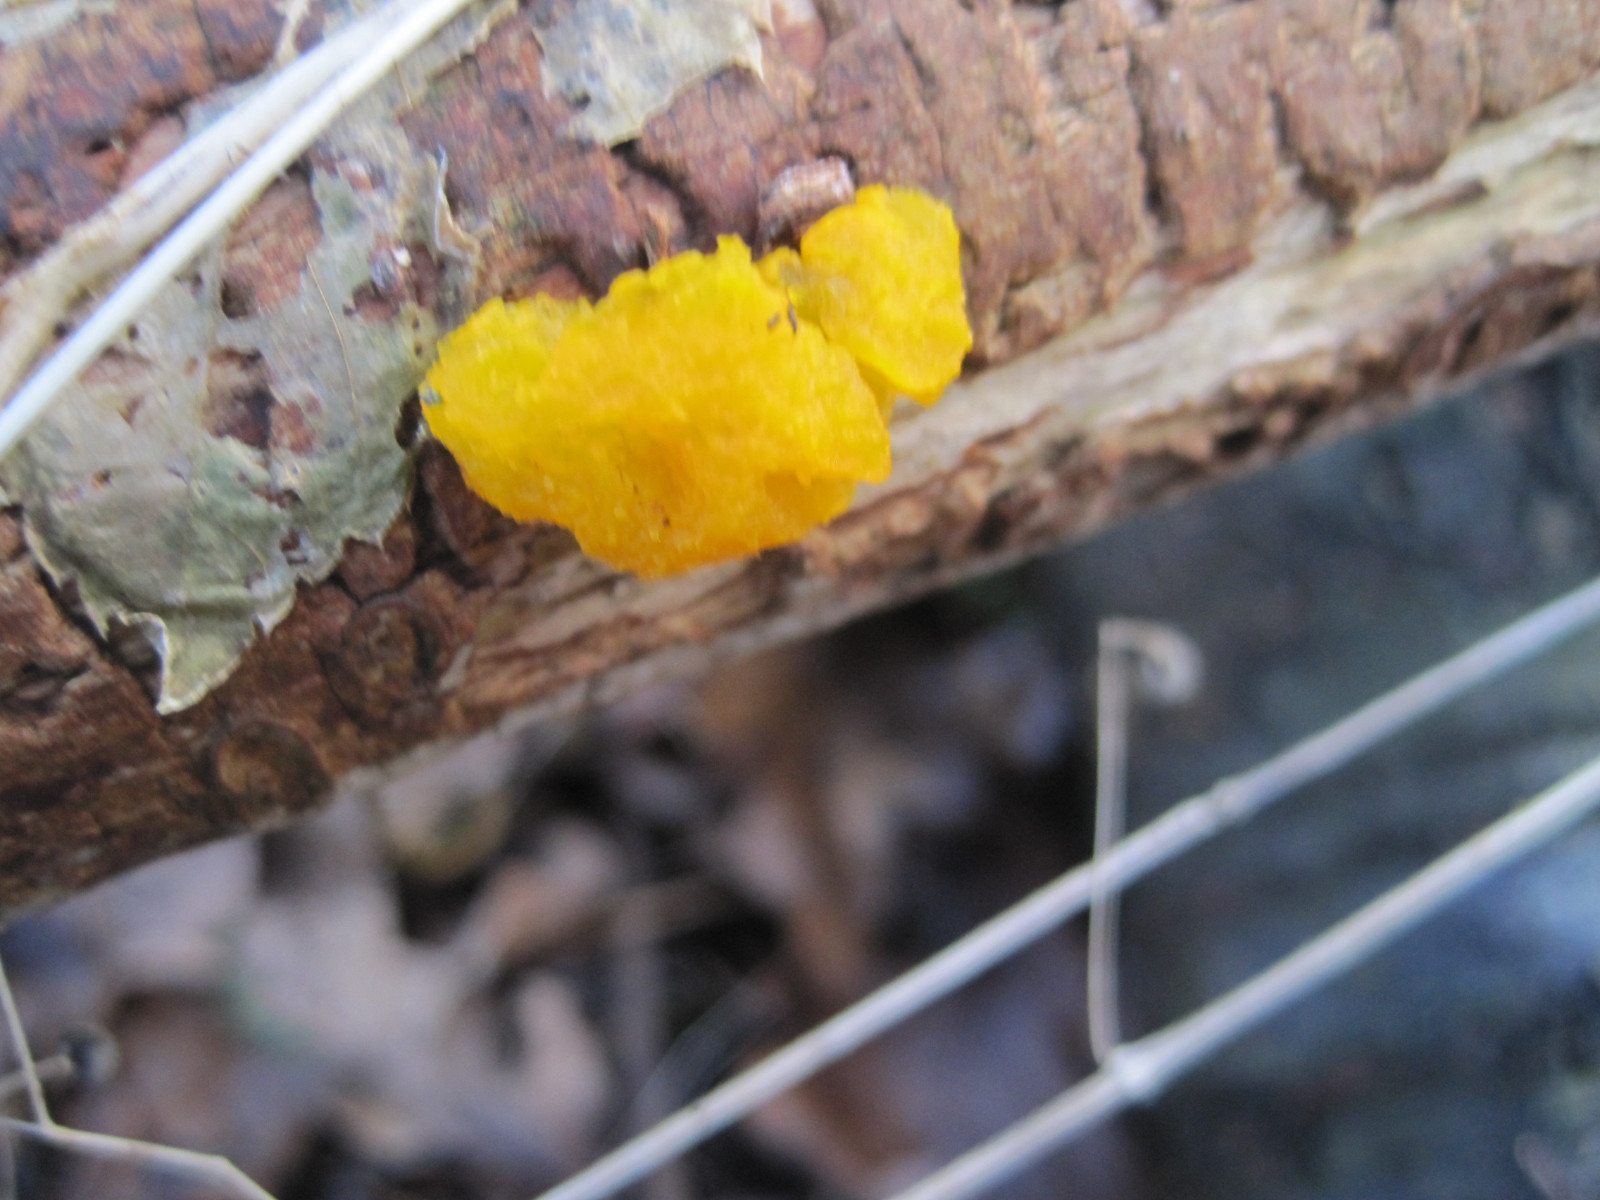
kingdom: Fungi
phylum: Basidiomycota
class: Tremellomycetes
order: Tremellales
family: Tremellaceae
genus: Tremella
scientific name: Tremella mesenterica
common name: gul bævresvamp
